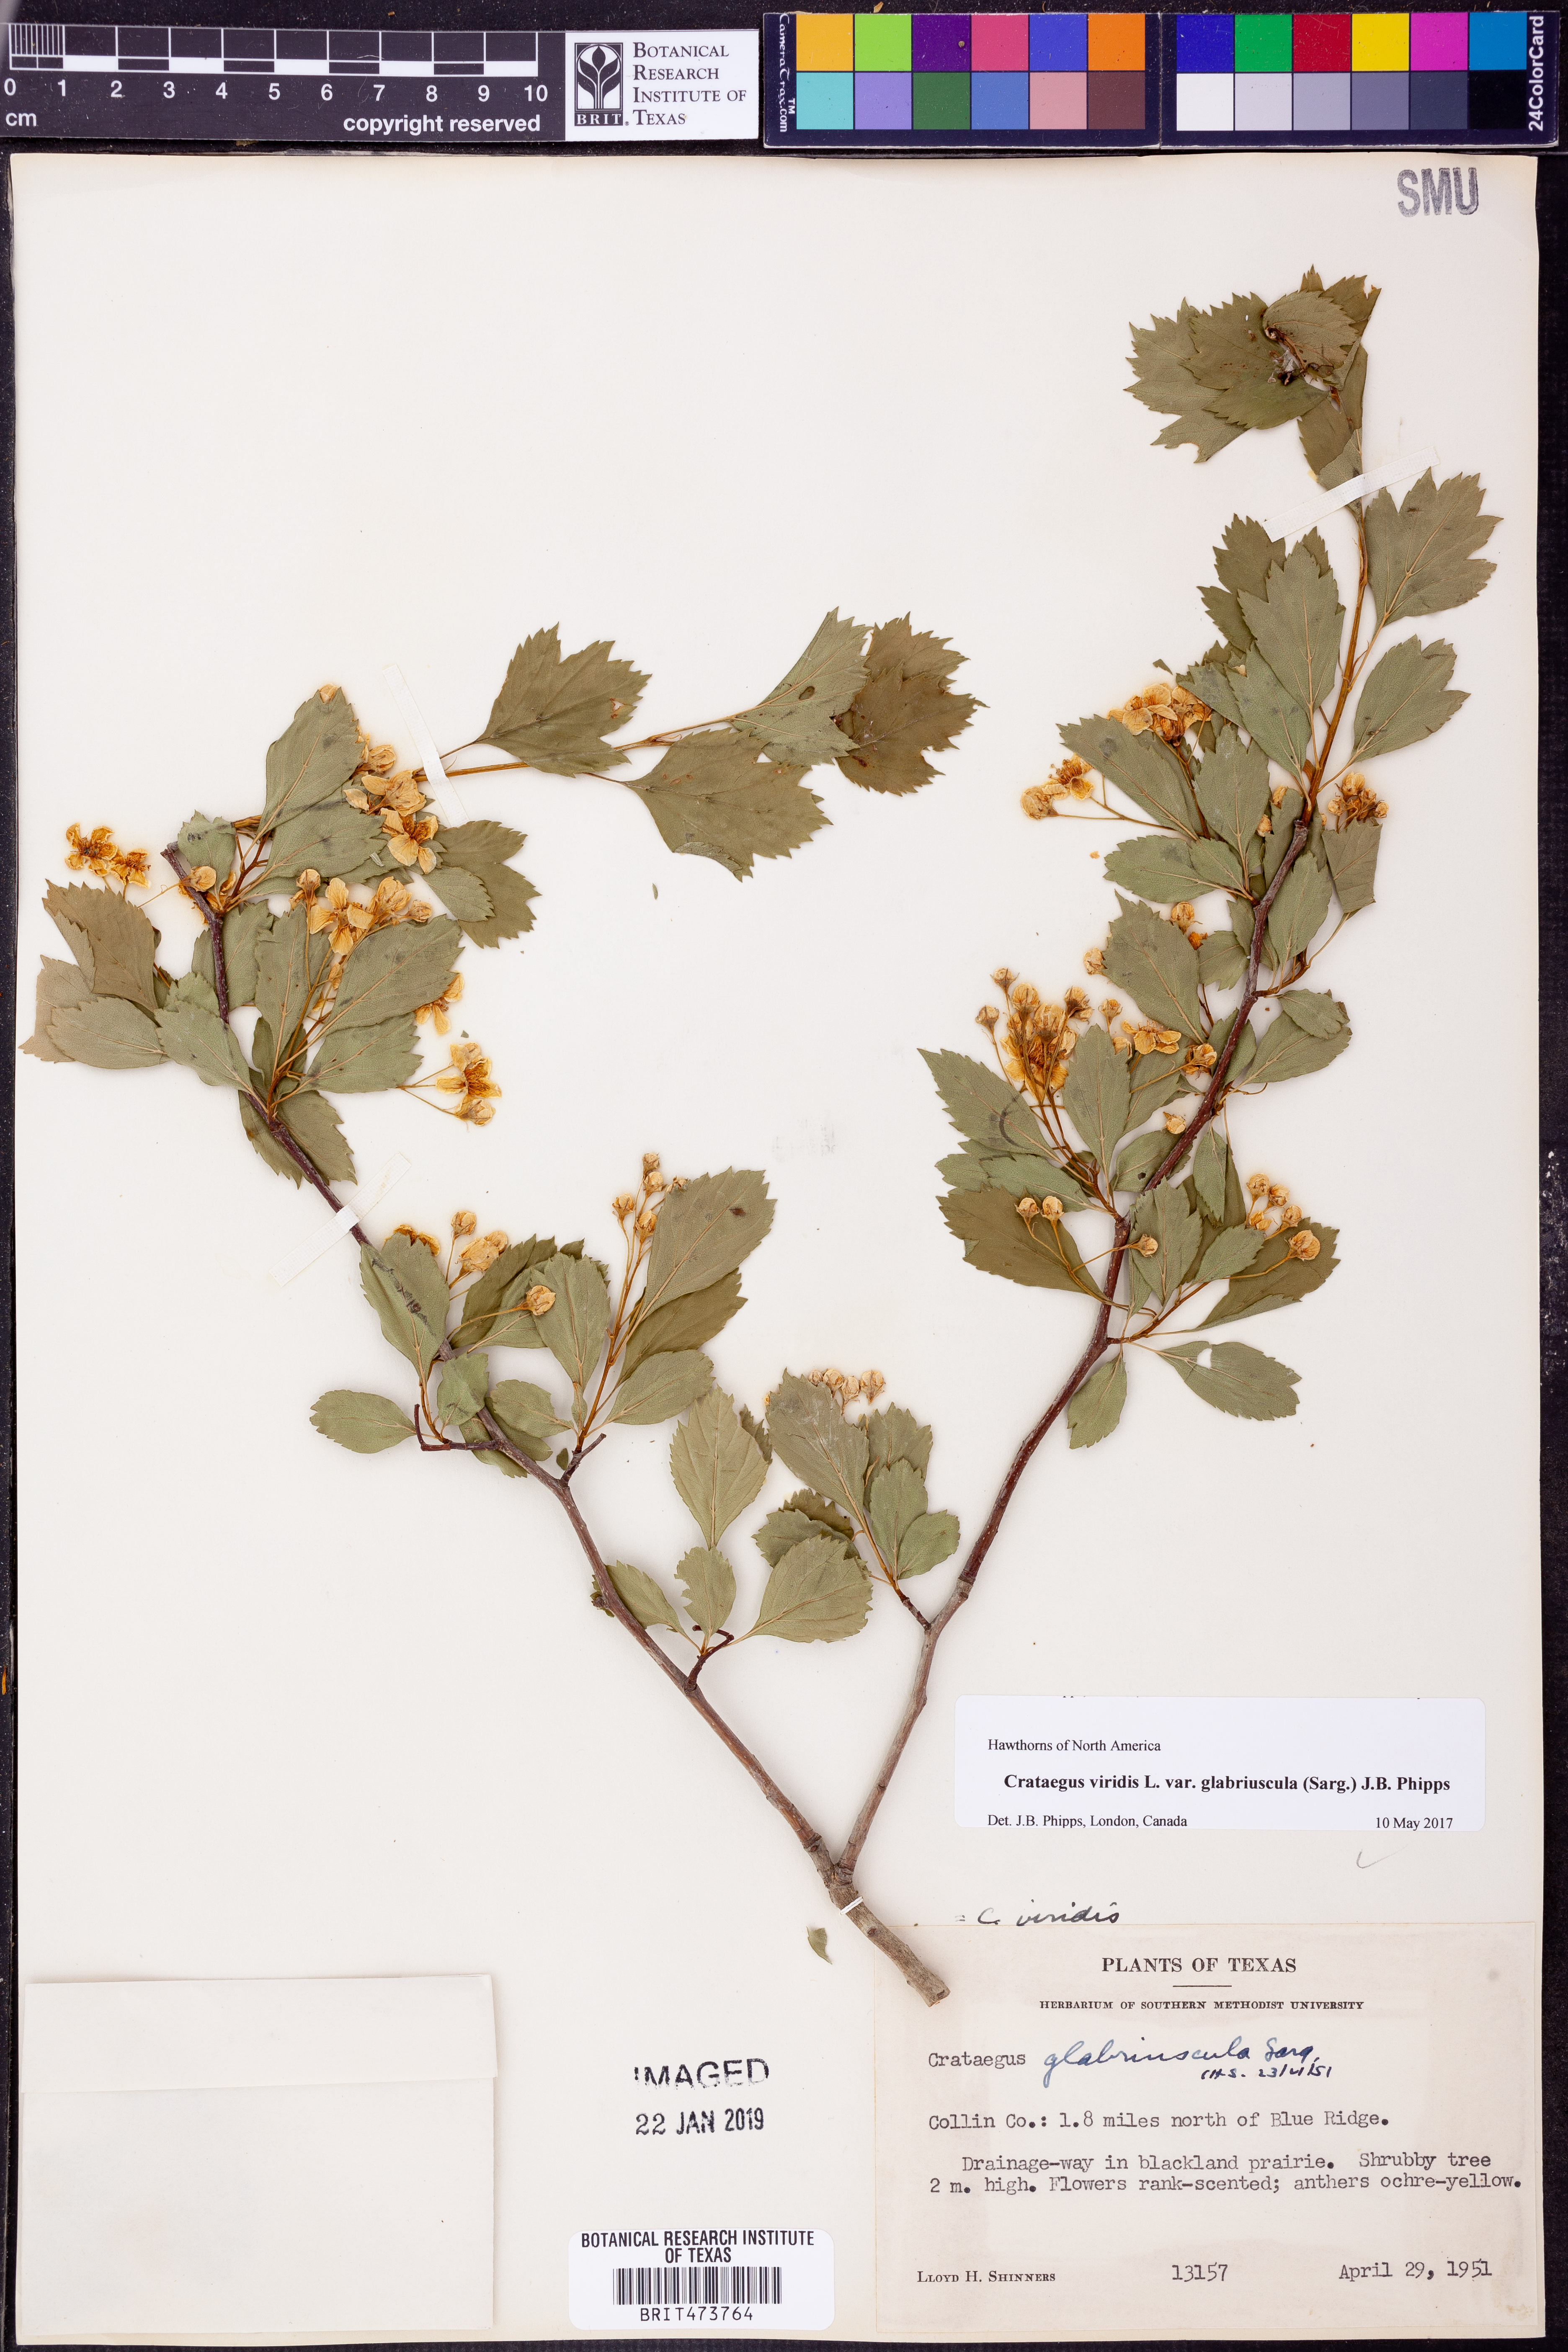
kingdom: Plantae
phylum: Tracheophyta
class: Magnoliopsida
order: Rosales
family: Rosaceae
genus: Crataegus
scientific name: Crataegus viridis
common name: Southernthorn
